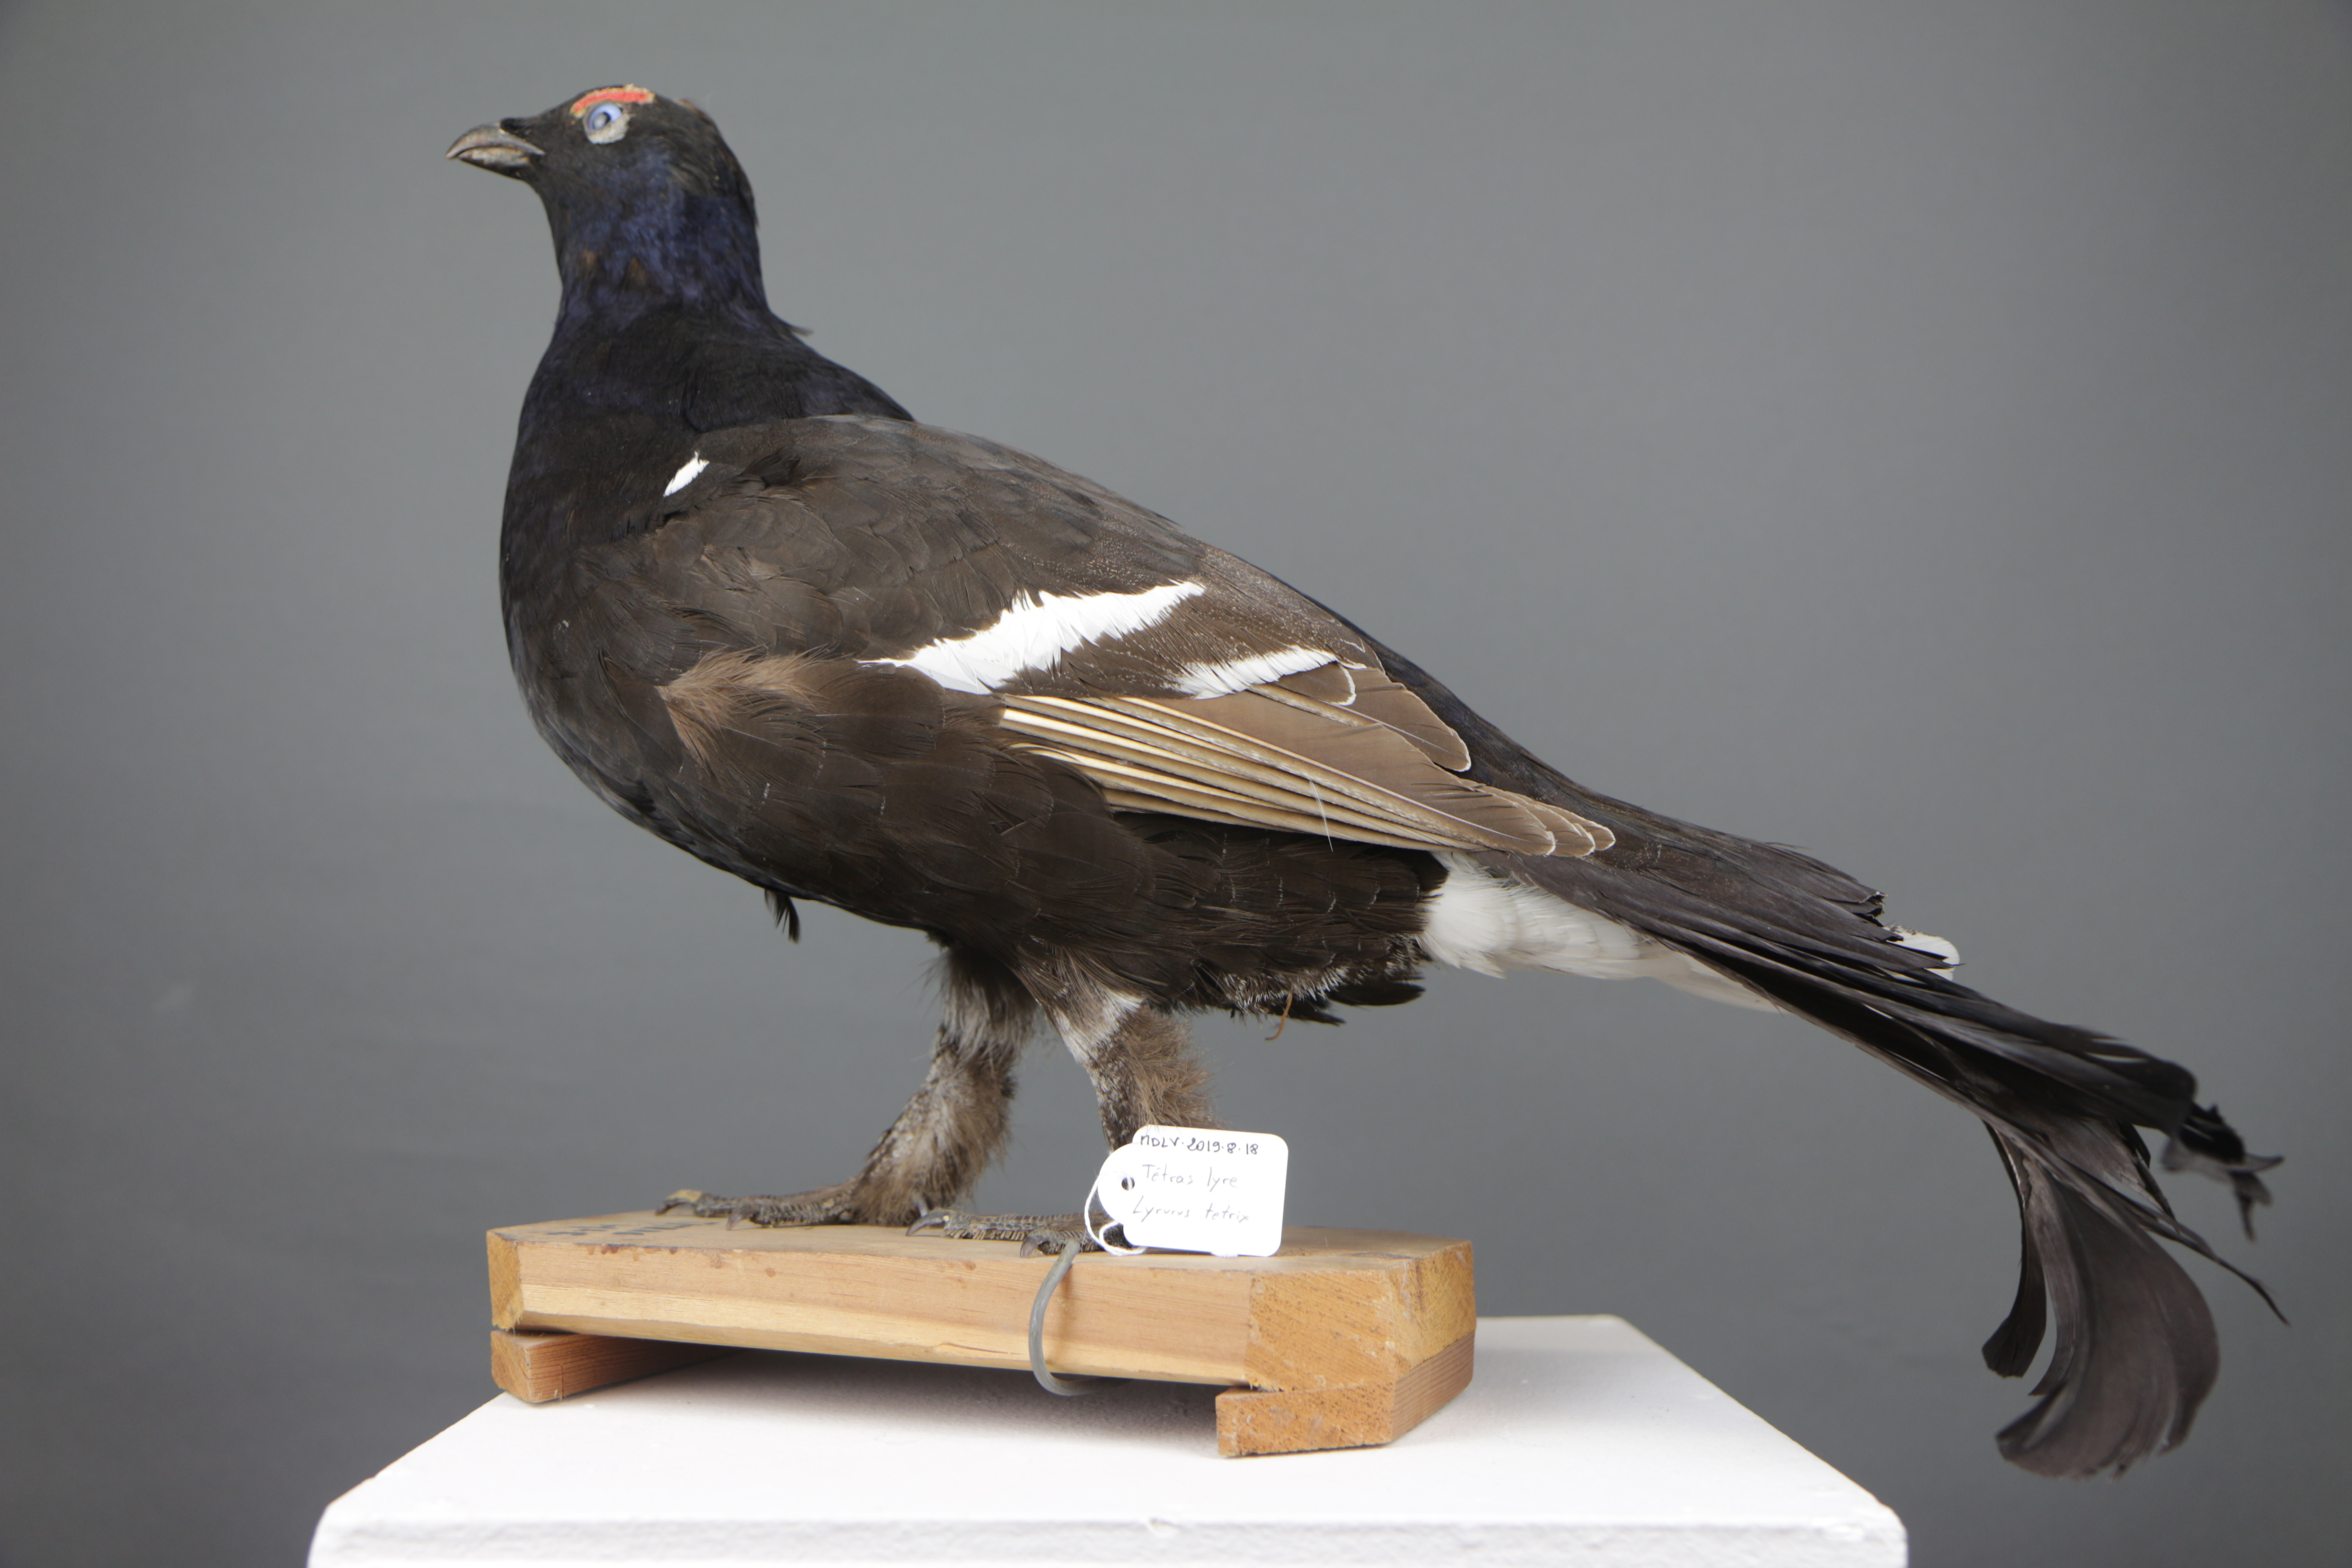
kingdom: Animalia
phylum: Chordata
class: Aves
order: Galliformes
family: Phasianidae
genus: Lyrurus
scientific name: Lyrurus tetrix
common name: Black grouse
